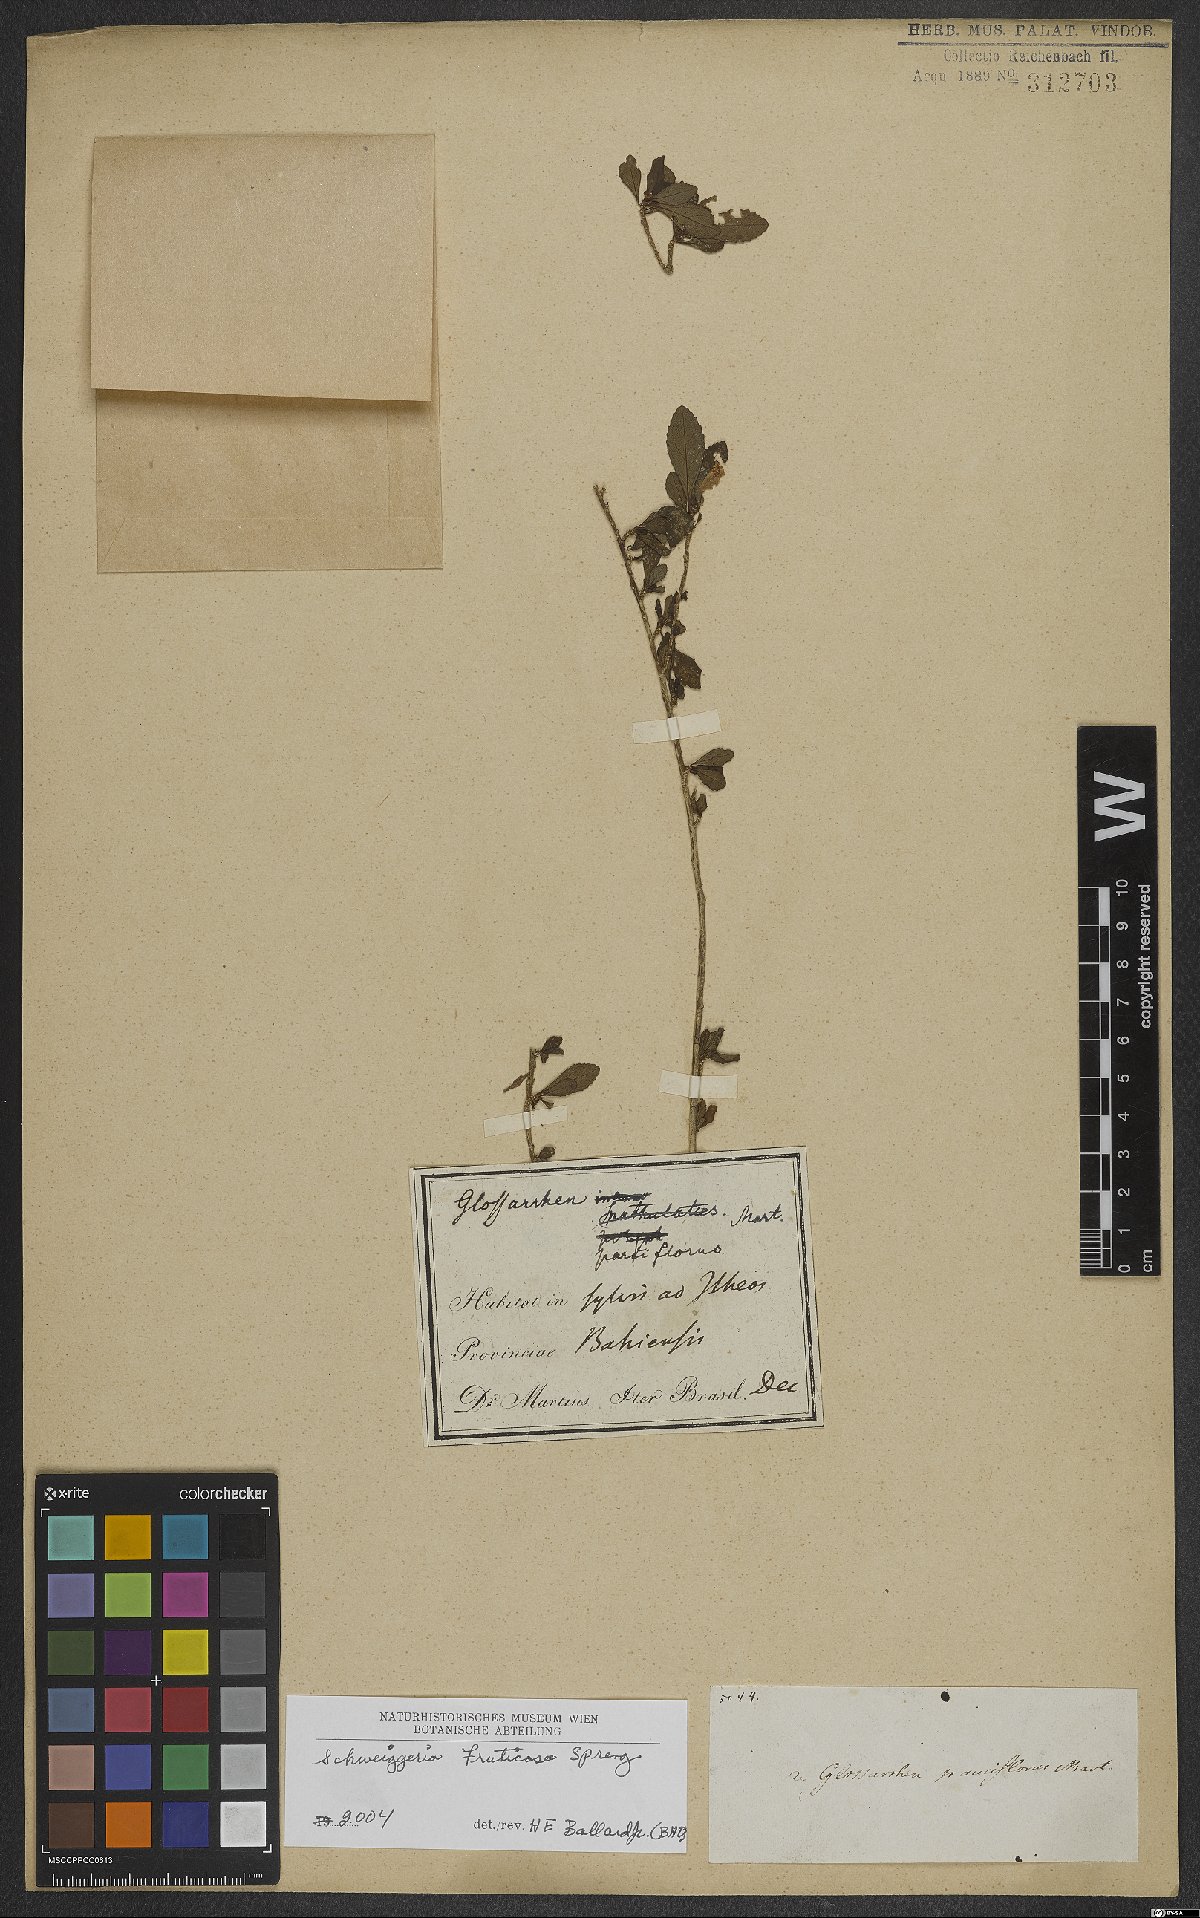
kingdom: Plantae
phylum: Tracheophyta
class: Magnoliopsida
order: Malpighiales
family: Violaceae
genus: Schweiggeria
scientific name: Schweiggeria fruticosa
